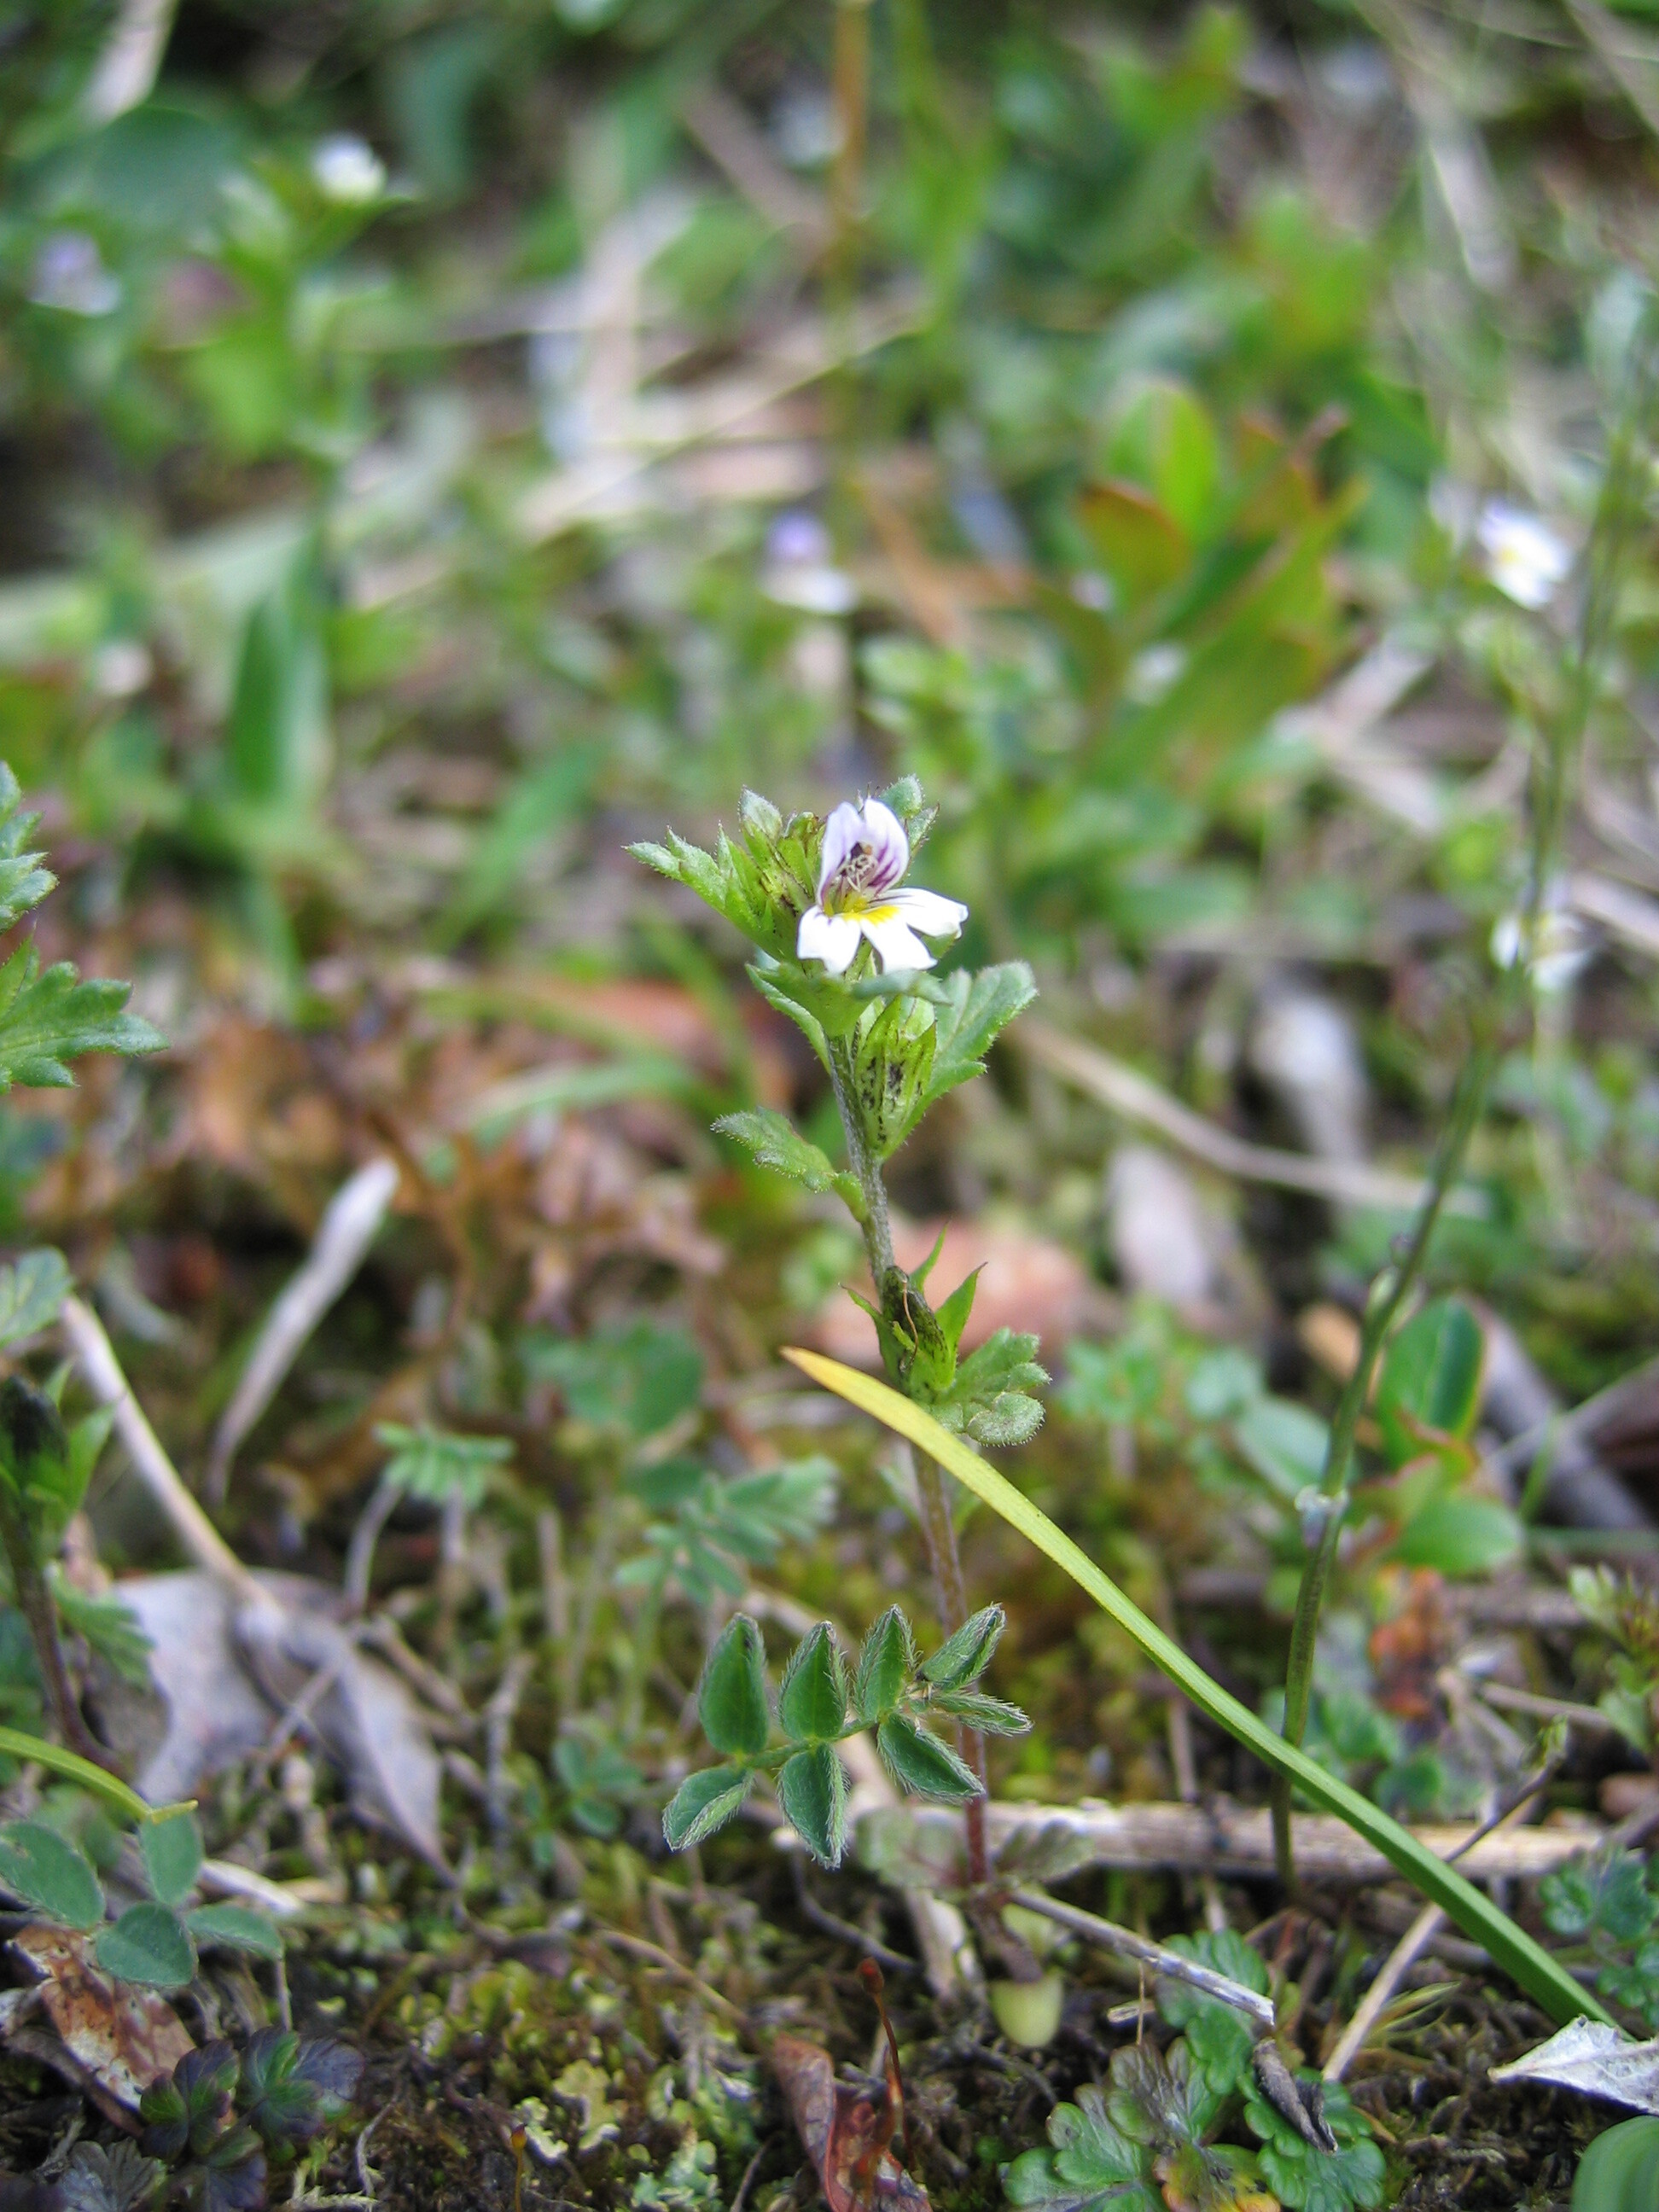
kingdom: Plantae
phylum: Tracheophyta
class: Magnoliopsida
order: Lamiales
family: Orobanchaceae
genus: Euphrasia
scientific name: Euphrasia wettsteinii
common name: Wettstein's eyebright
